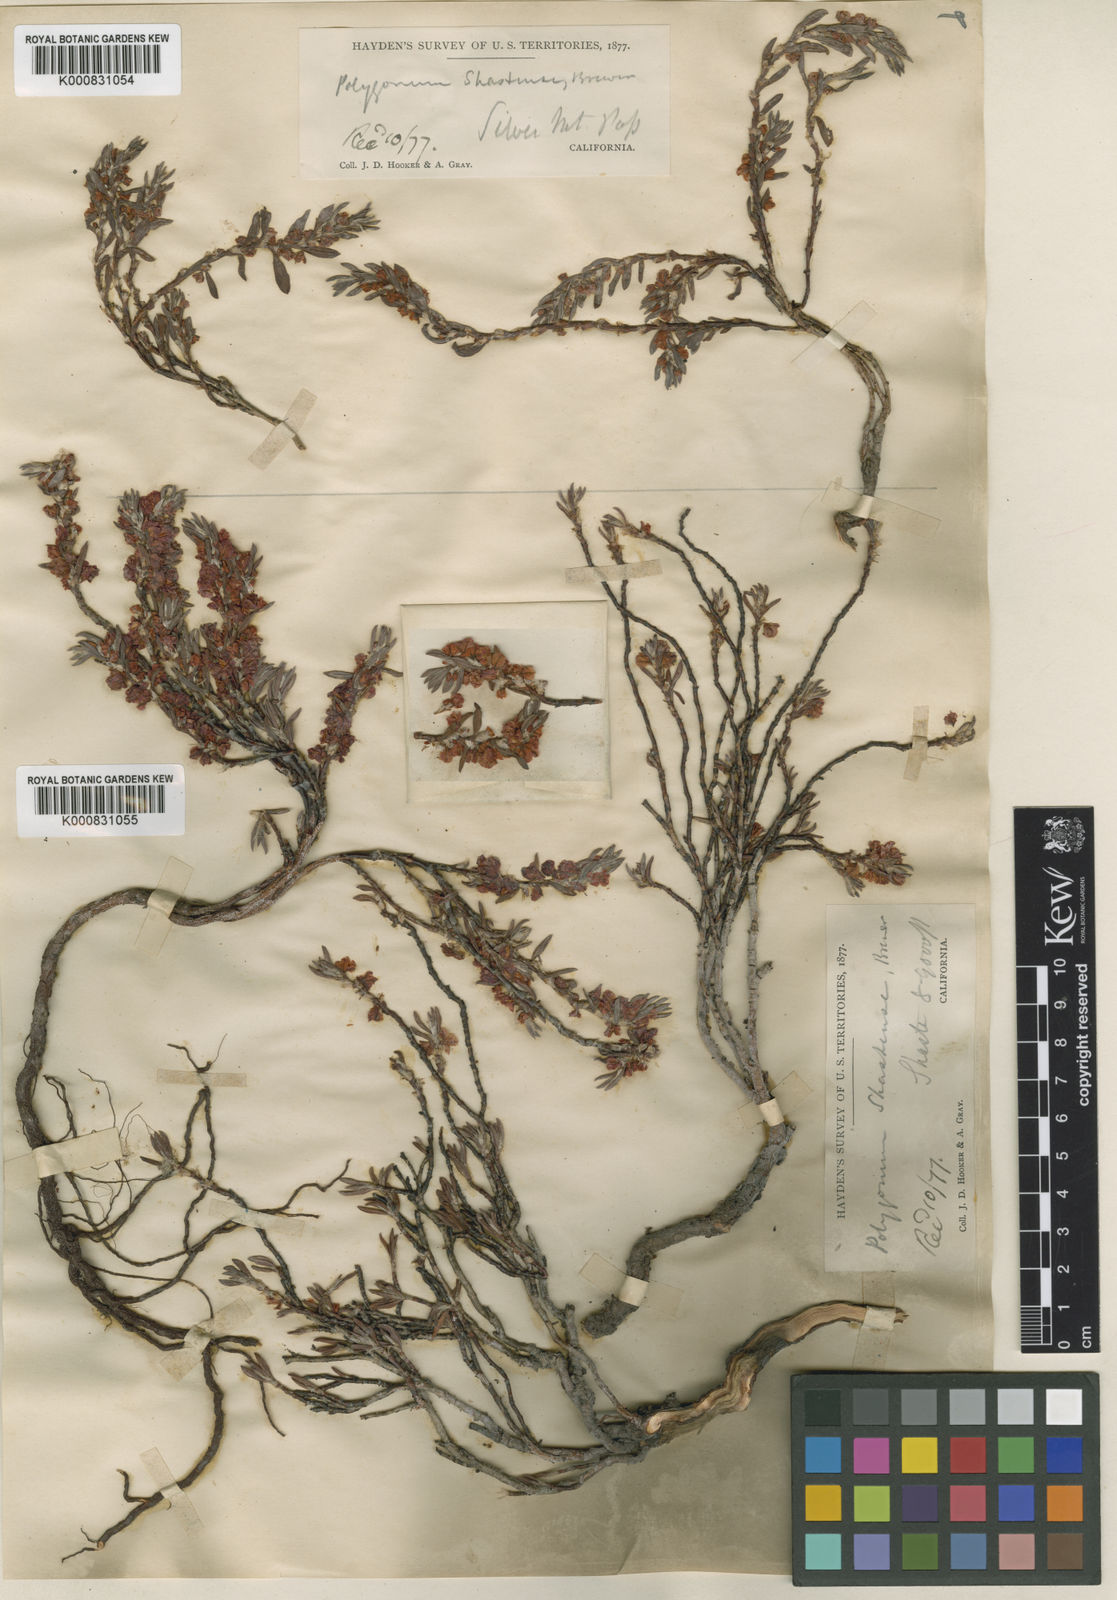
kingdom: Plantae
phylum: Tracheophyta
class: Magnoliopsida
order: Caryophyllales
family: Polygonaceae
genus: Polygonum
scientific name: Polygonum
